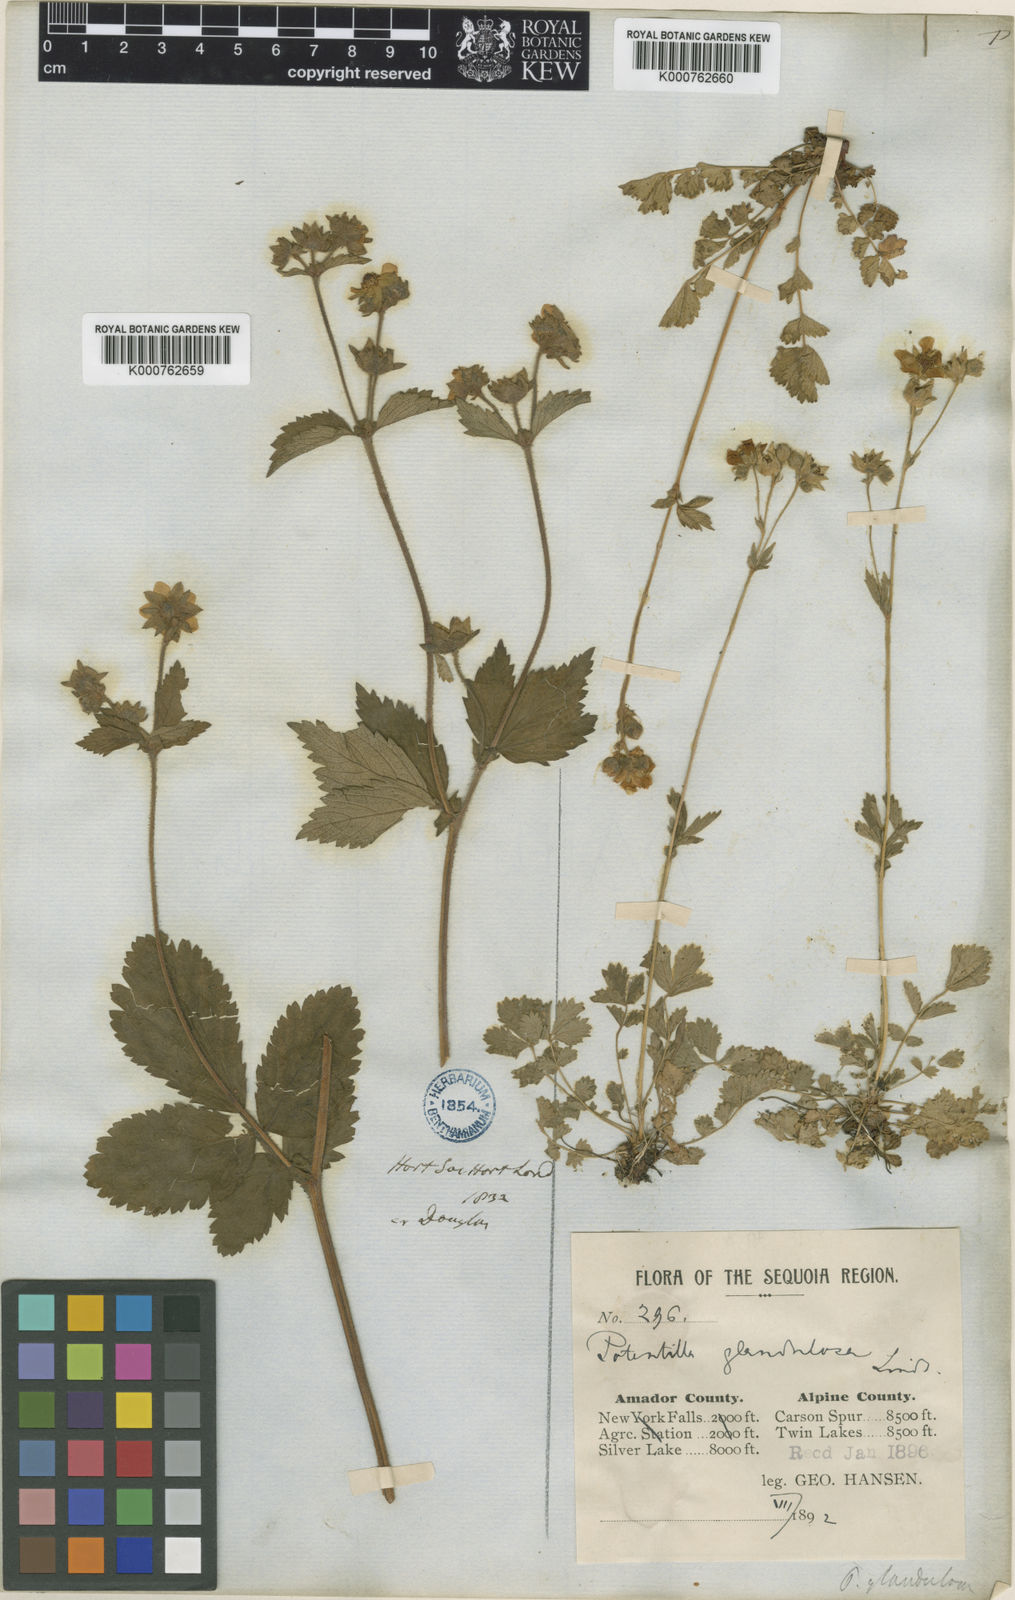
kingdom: Plantae
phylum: Tracheophyta
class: Magnoliopsida
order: Rosales
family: Rosaceae
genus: Drymocallis
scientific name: Drymocallis glandulosa
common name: Sticky cinquefoil
